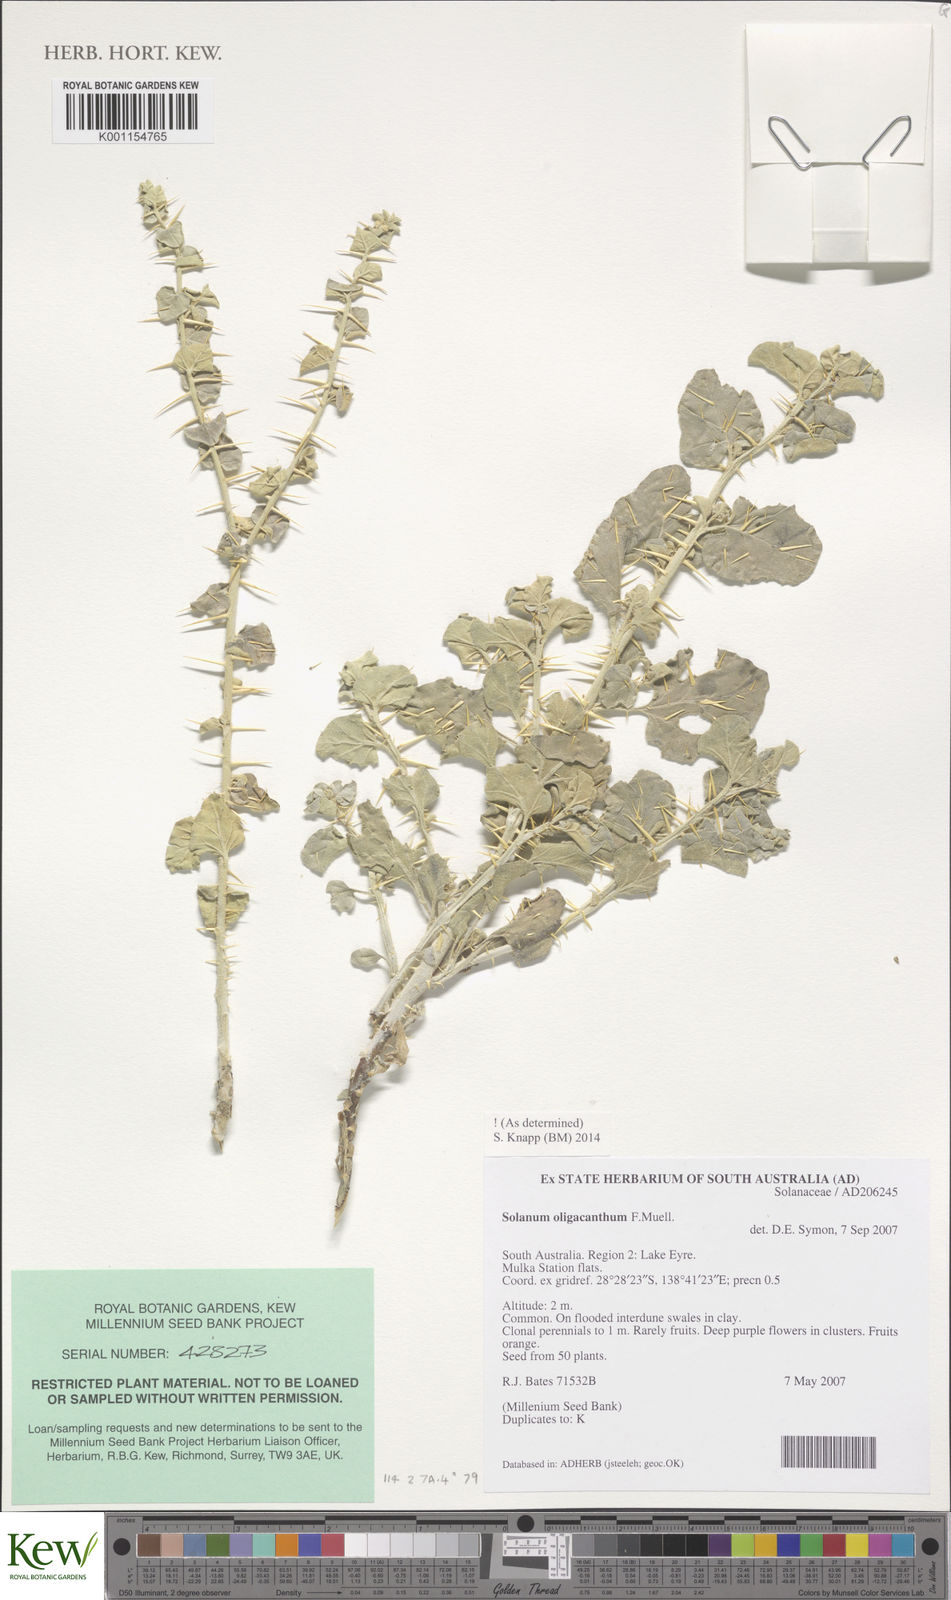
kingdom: Plantae
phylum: Tracheophyta
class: Magnoliopsida
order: Solanales
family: Solanaceae
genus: Solanum
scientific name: Solanum oligacanthum
